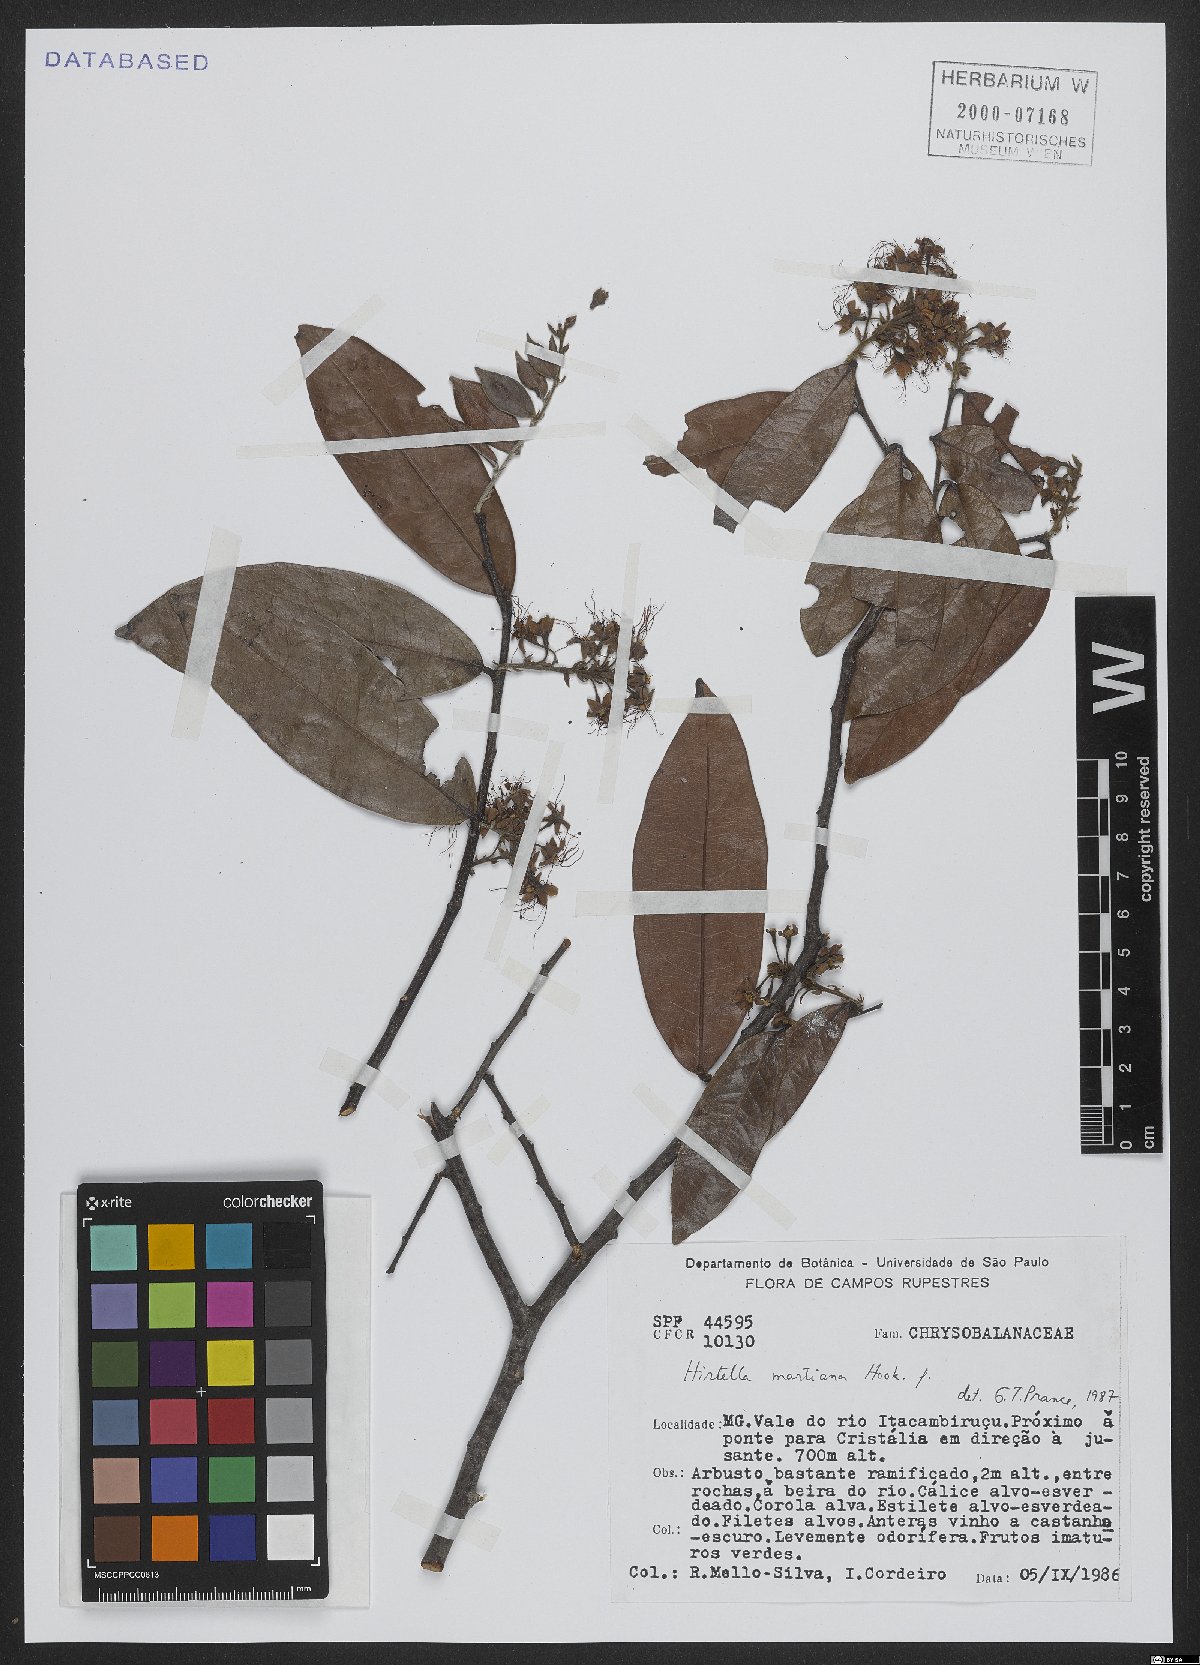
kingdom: Plantae
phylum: Tracheophyta
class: Magnoliopsida
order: Malpighiales
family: Chrysobalanaceae
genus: Hirtella
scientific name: Hirtella martiana
